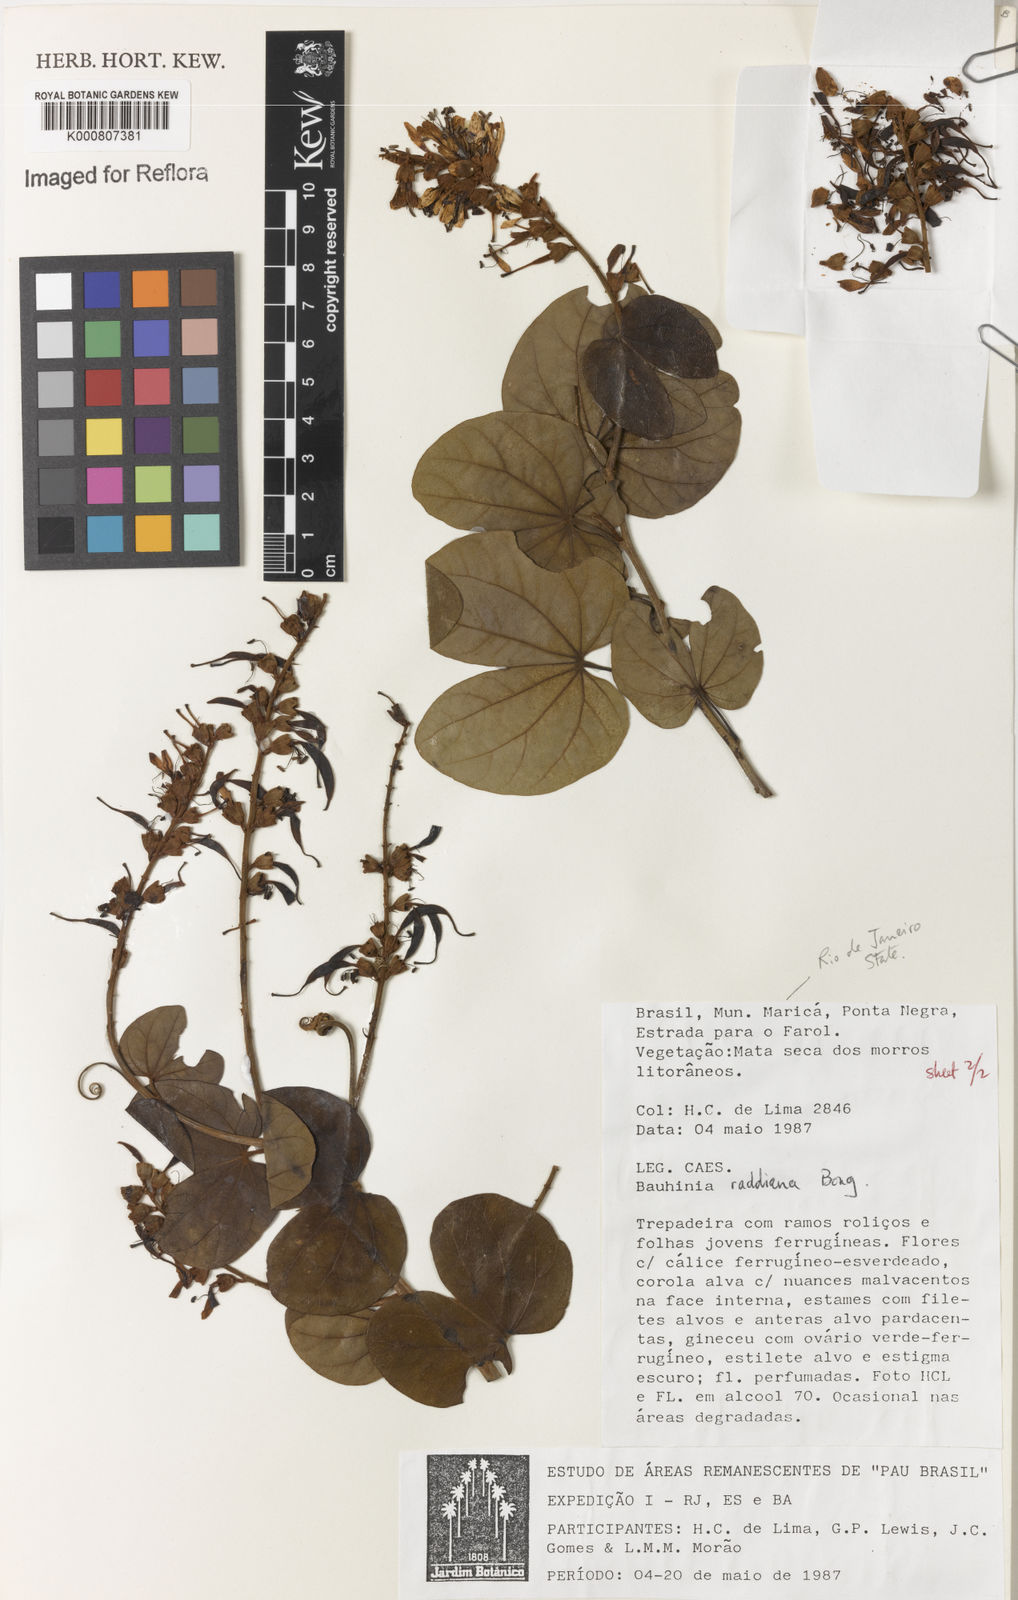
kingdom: Plantae
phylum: Tracheophyta
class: Magnoliopsida
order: Fabales
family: Fabaceae
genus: Schnella
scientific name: Schnella macrostachya
